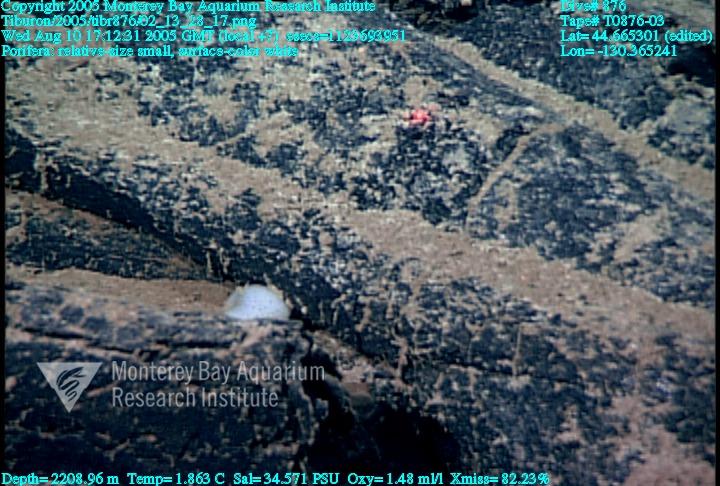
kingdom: Animalia
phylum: Porifera
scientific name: Porifera
